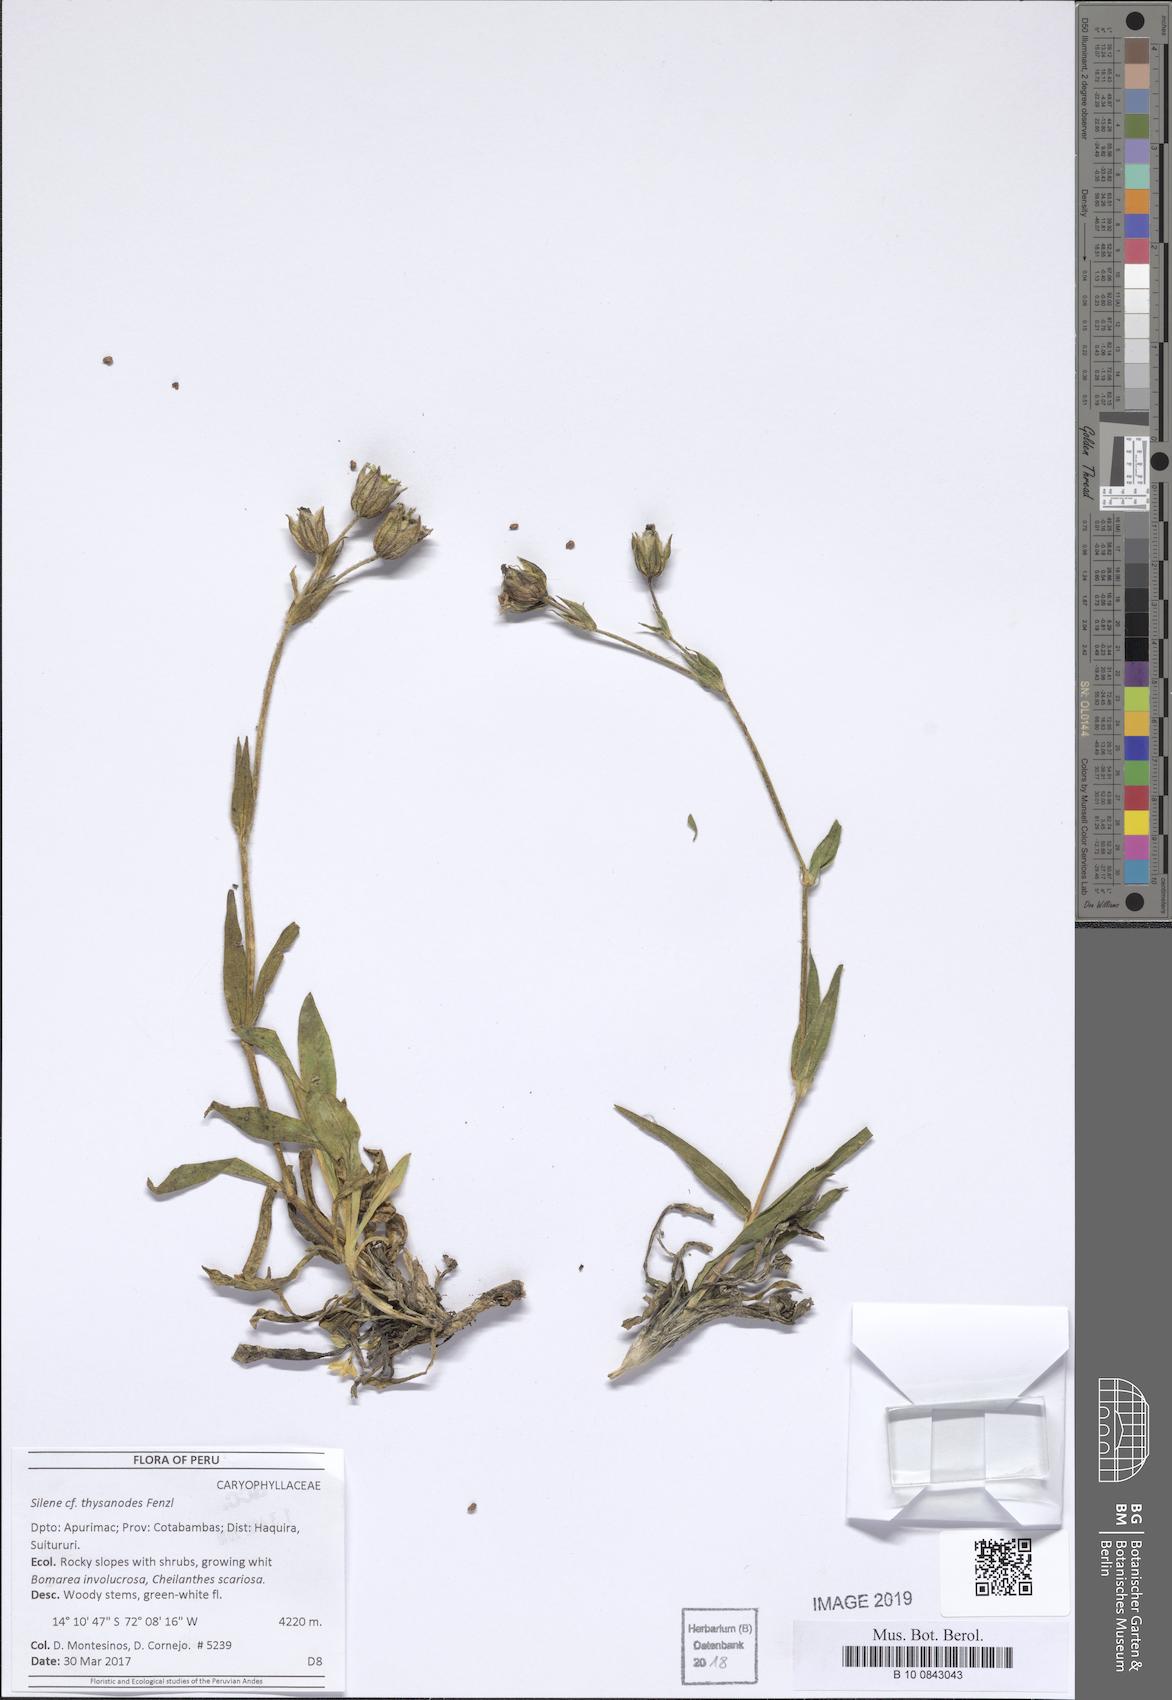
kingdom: Plantae
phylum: Tracheophyta
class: Magnoliopsida
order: Caryophyllales
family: Caryophyllaceae
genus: Silene
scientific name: Silene thysanodes
